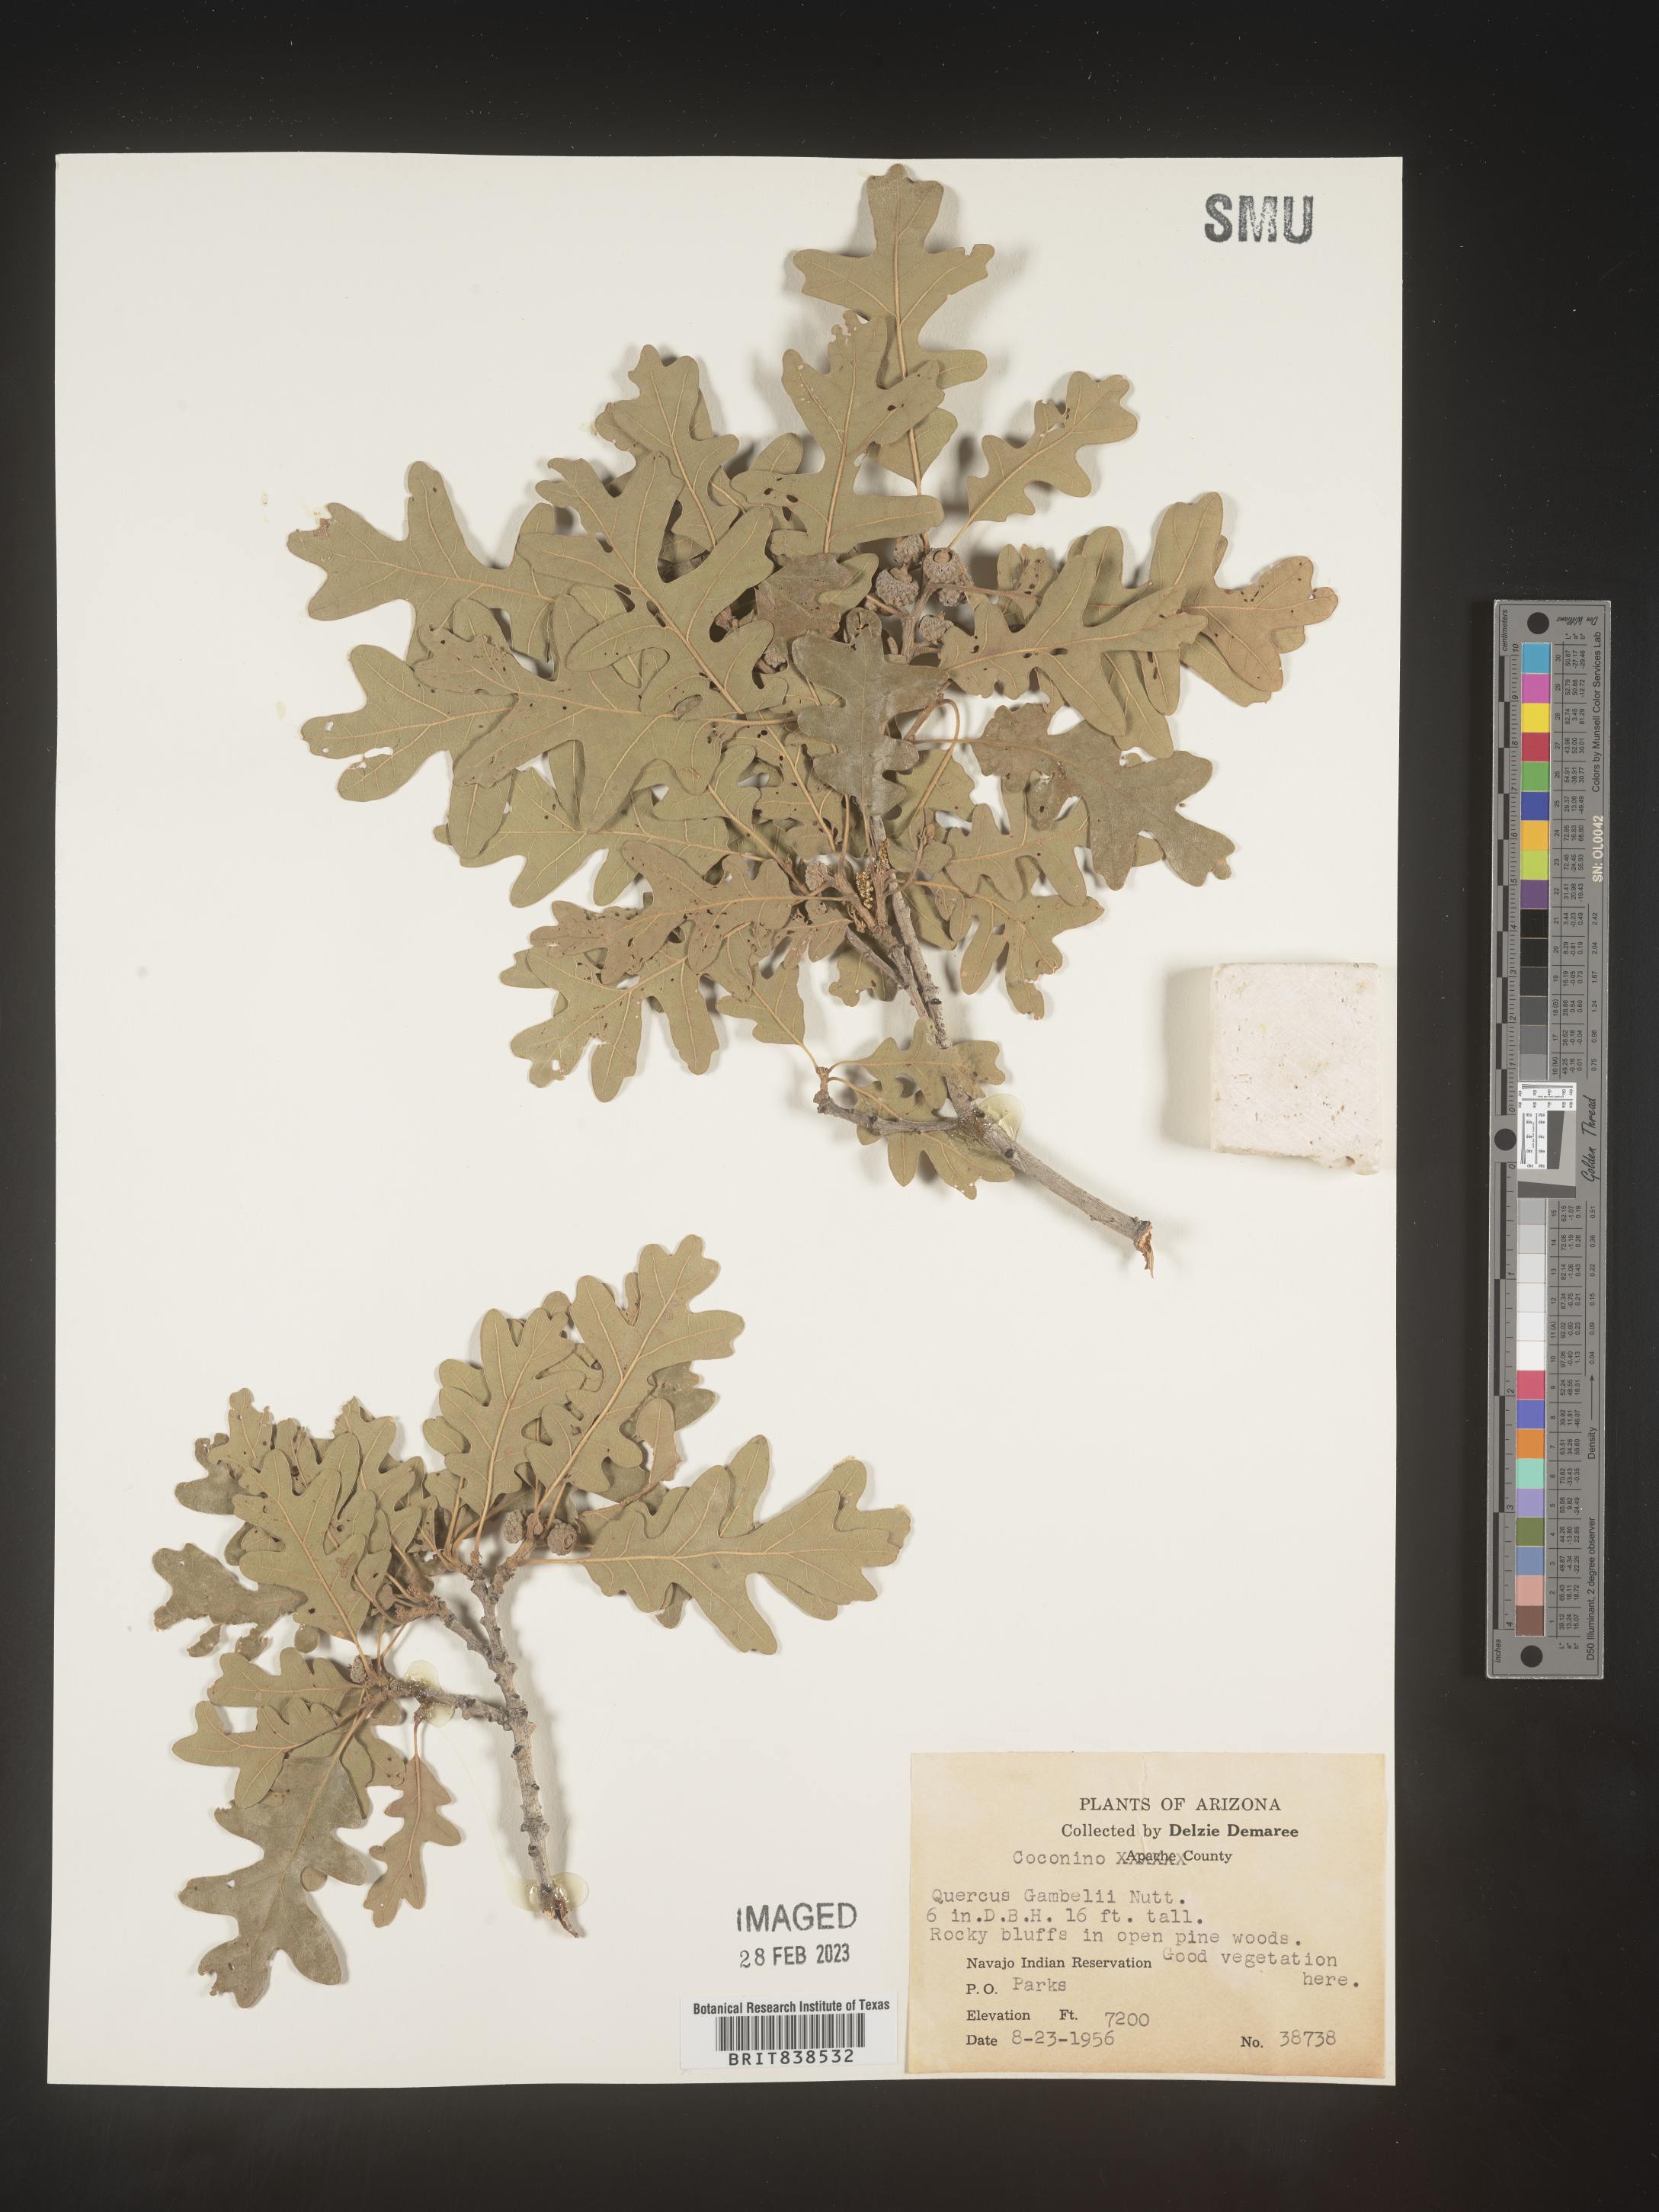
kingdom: Plantae
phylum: Tracheophyta
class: Magnoliopsida
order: Fagales
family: Fagaceae
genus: Quercus
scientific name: Quercus gambelii
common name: Gambel oak
